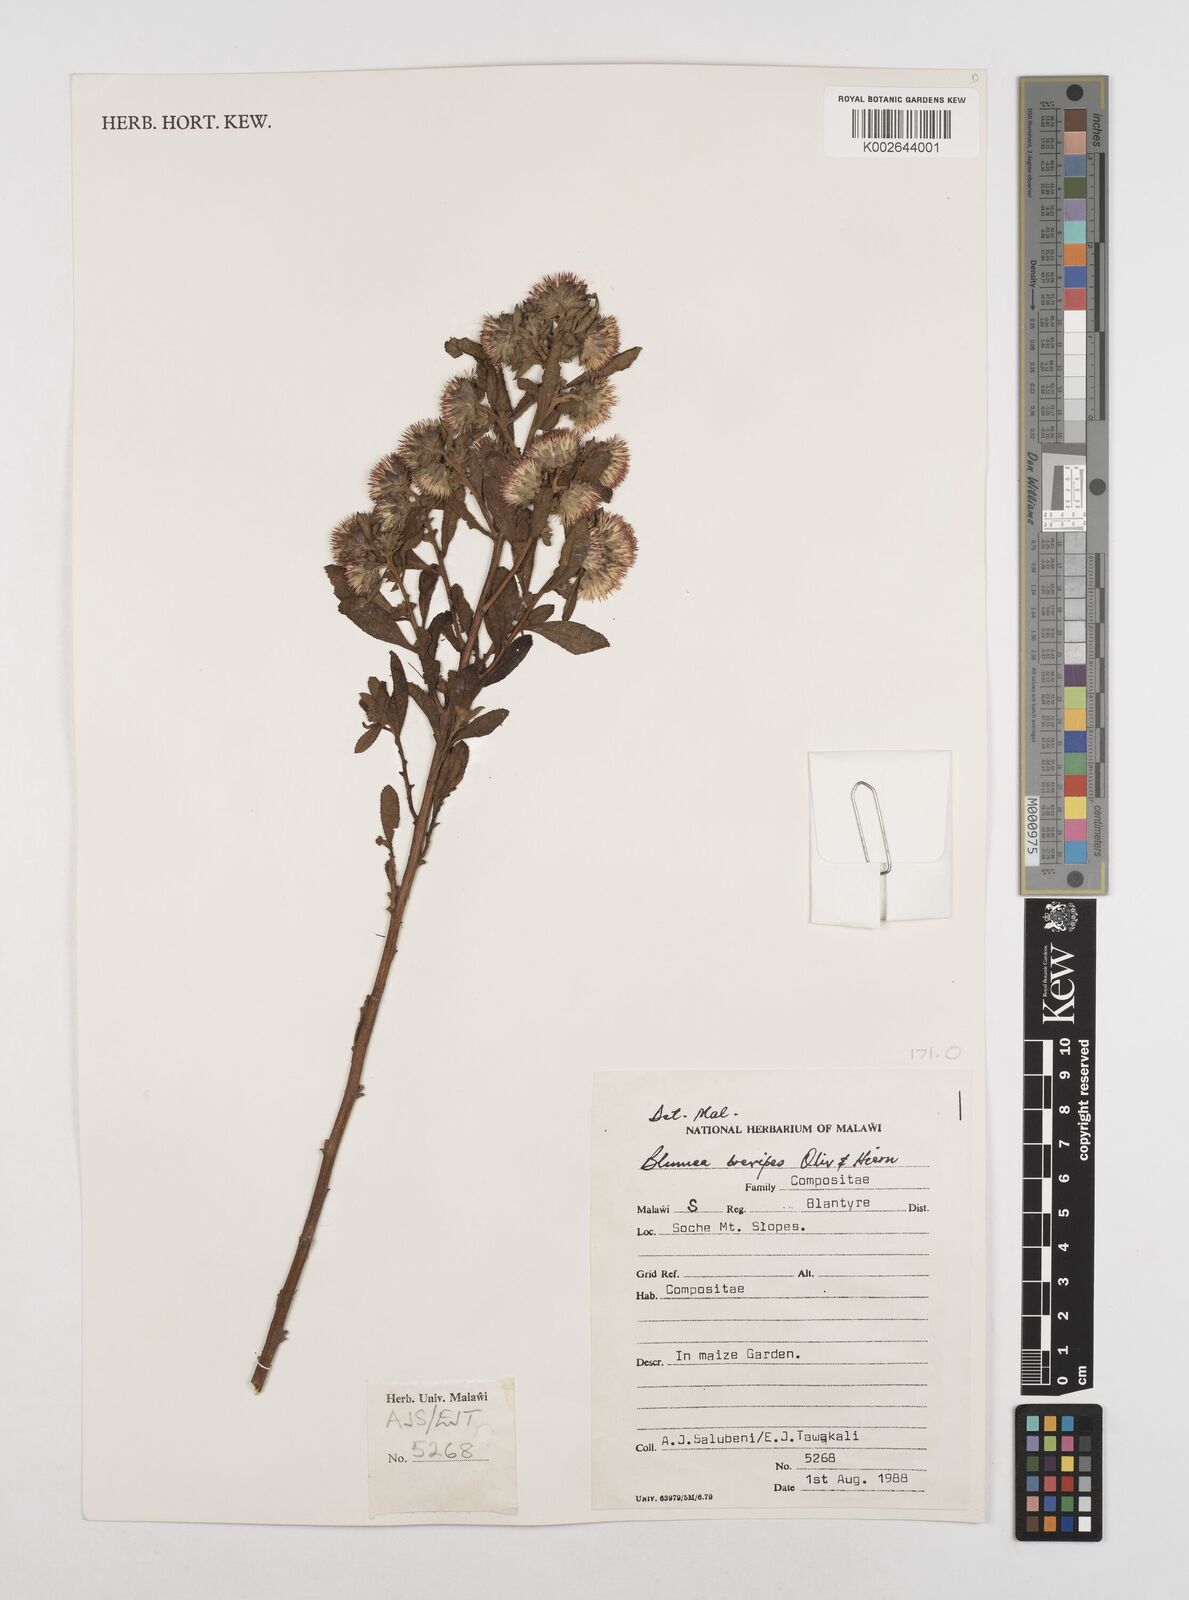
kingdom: Plantae
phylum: Tracheophyta
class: Magnoliopsida
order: Asterales
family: Asteraceae
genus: Laggera
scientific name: Laggera brevipes
